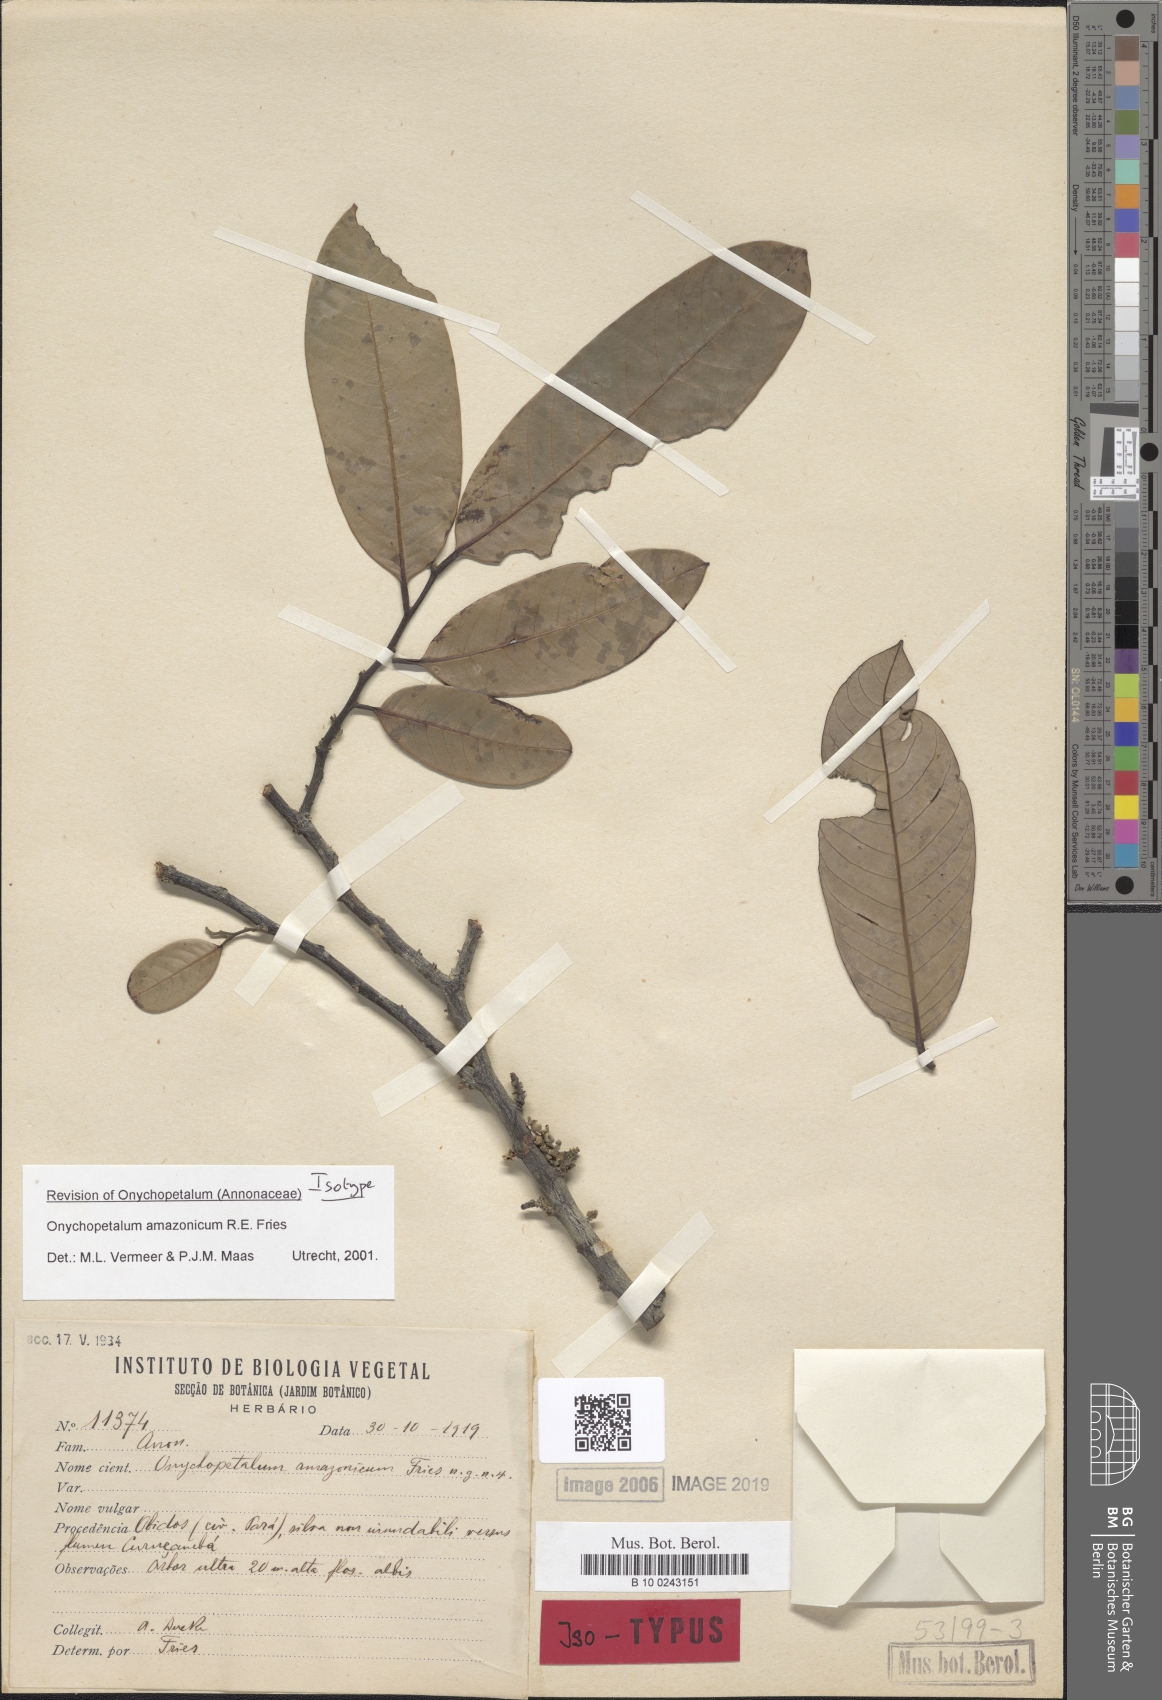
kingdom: Plantae
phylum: Tracheophyta
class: Magnoliopsida
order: Magnoliales
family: Annonaceae
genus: Onychopetalum
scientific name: Onychopetalum amazonicum
